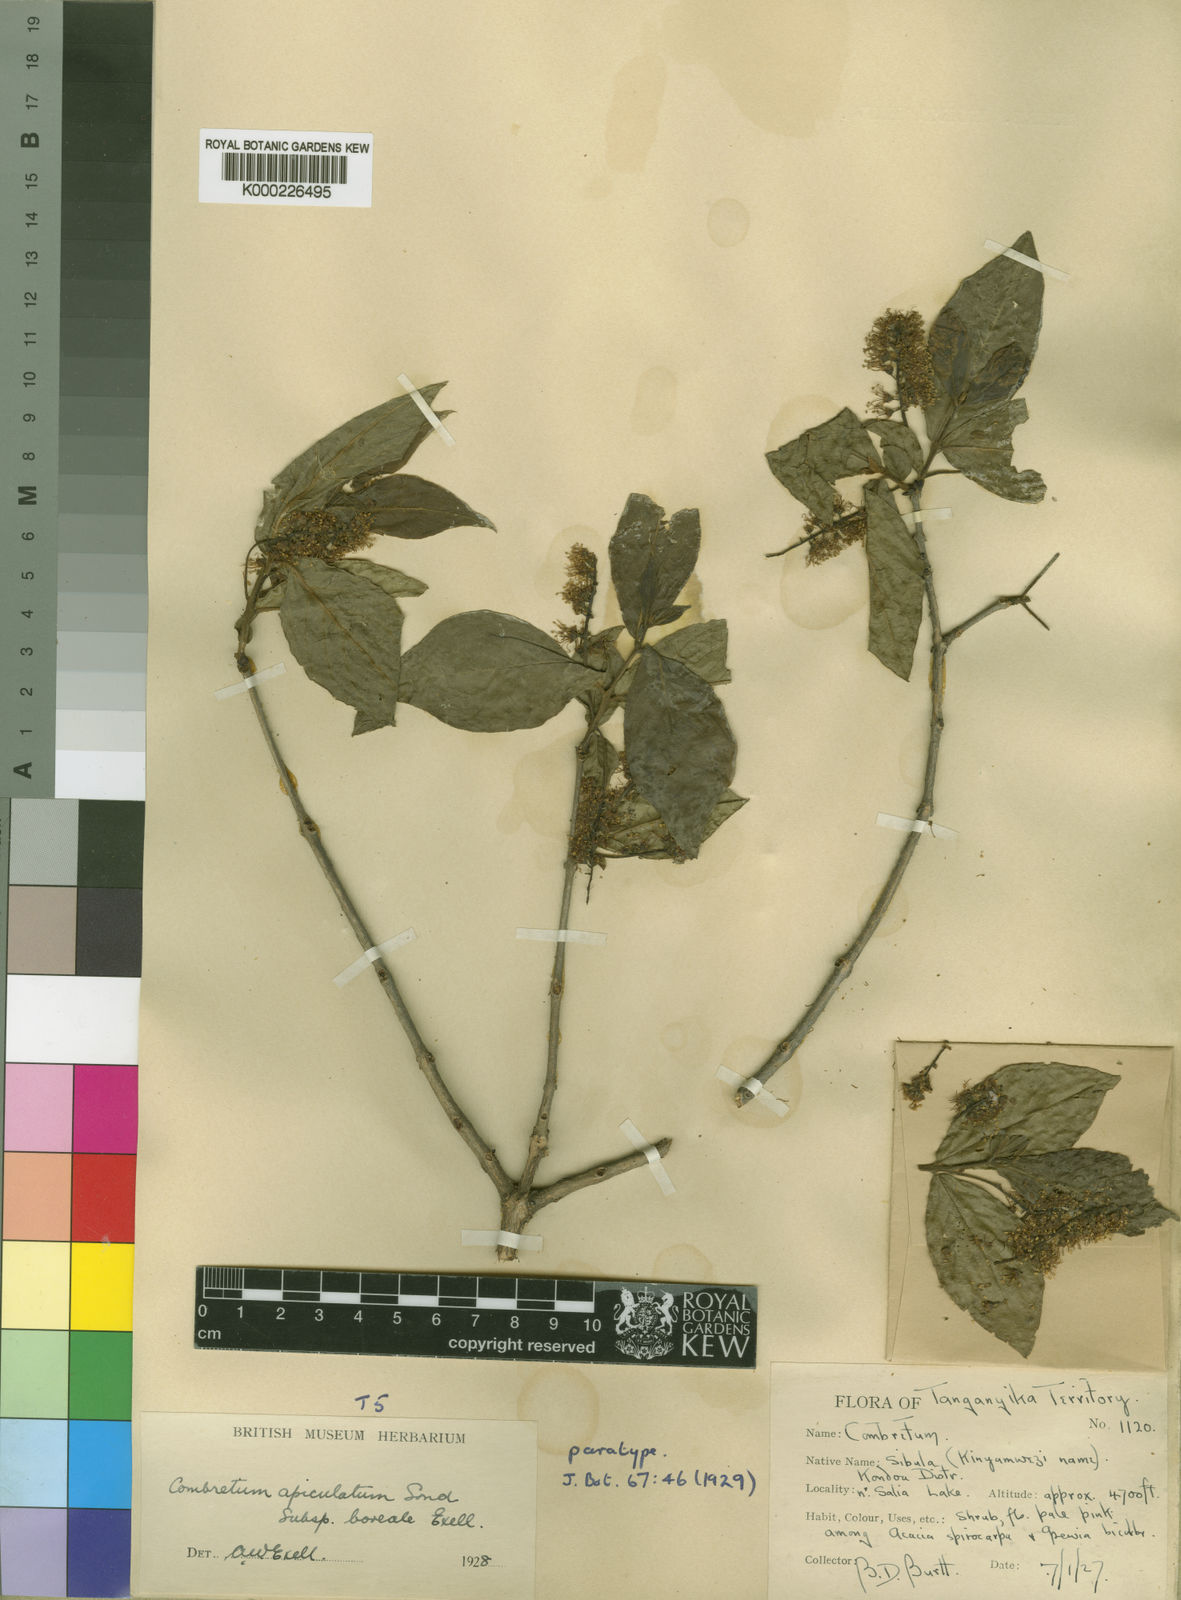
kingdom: Plantae
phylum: Tracheophyta
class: Magnoliopsida
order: Myrtales
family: Combretaceae
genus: Combretum
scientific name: Combretum apiculatum
